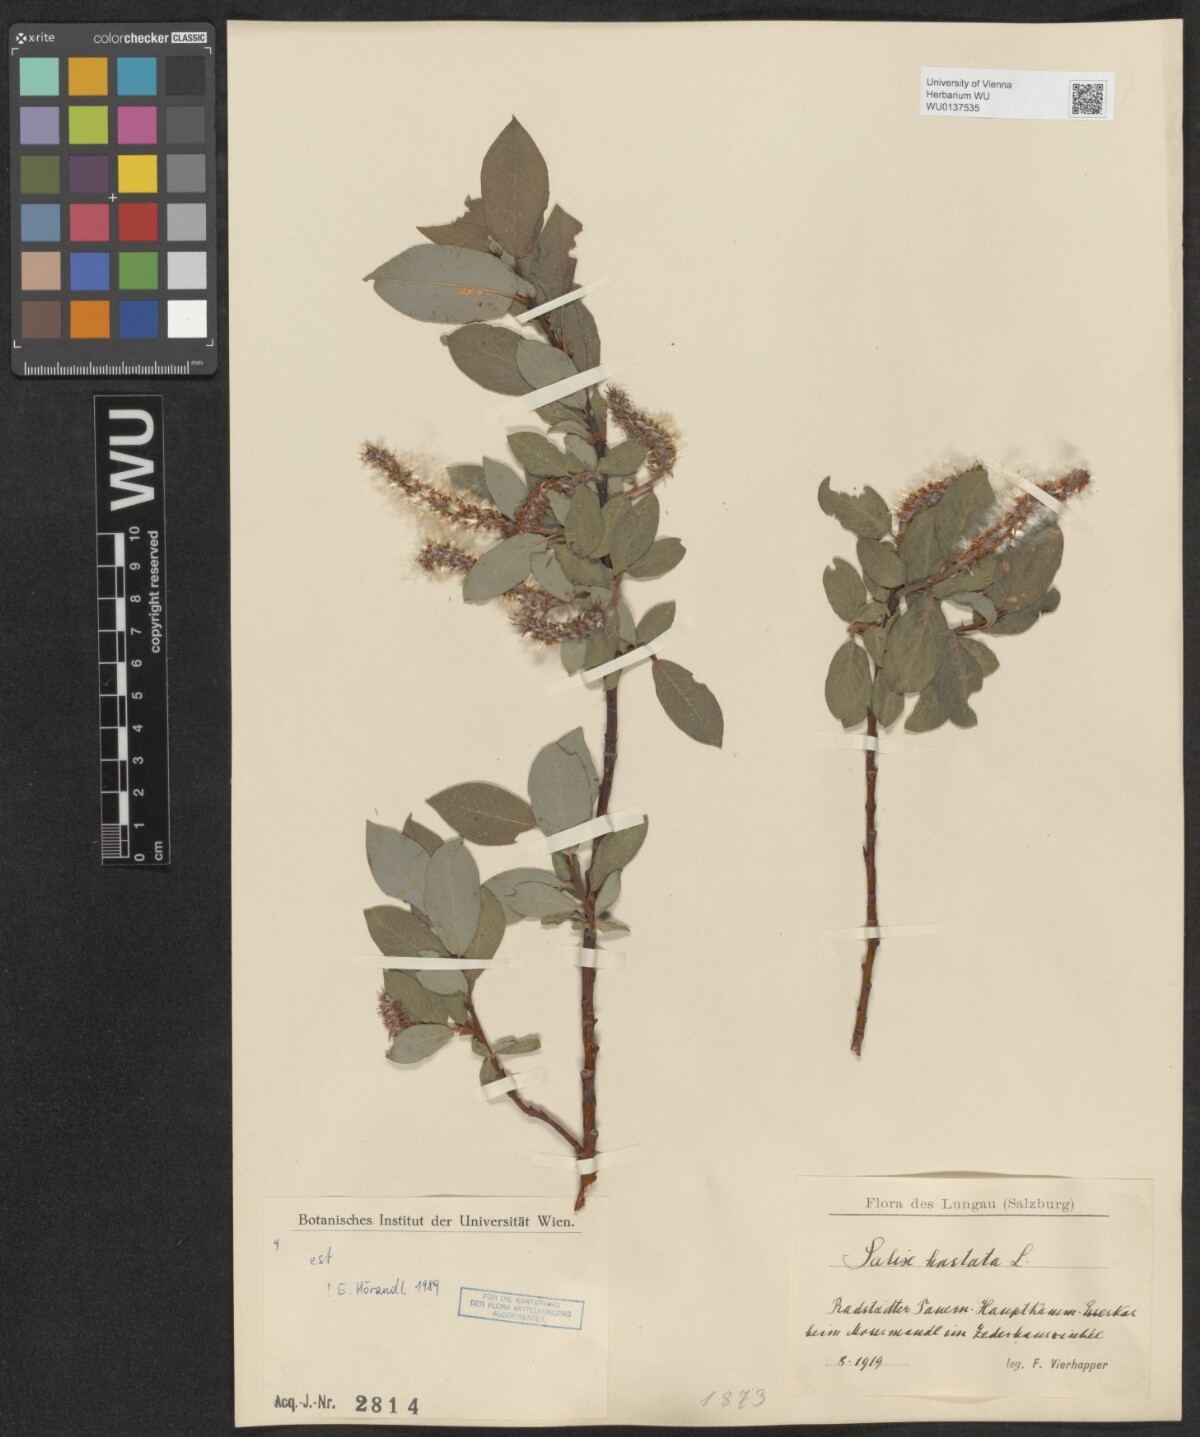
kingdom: Plantae
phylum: Tracheophyta
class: Magnoliopsida
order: Malpighiales
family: Salicaceae
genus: Salix
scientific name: Salix hastata
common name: Halberd willow
